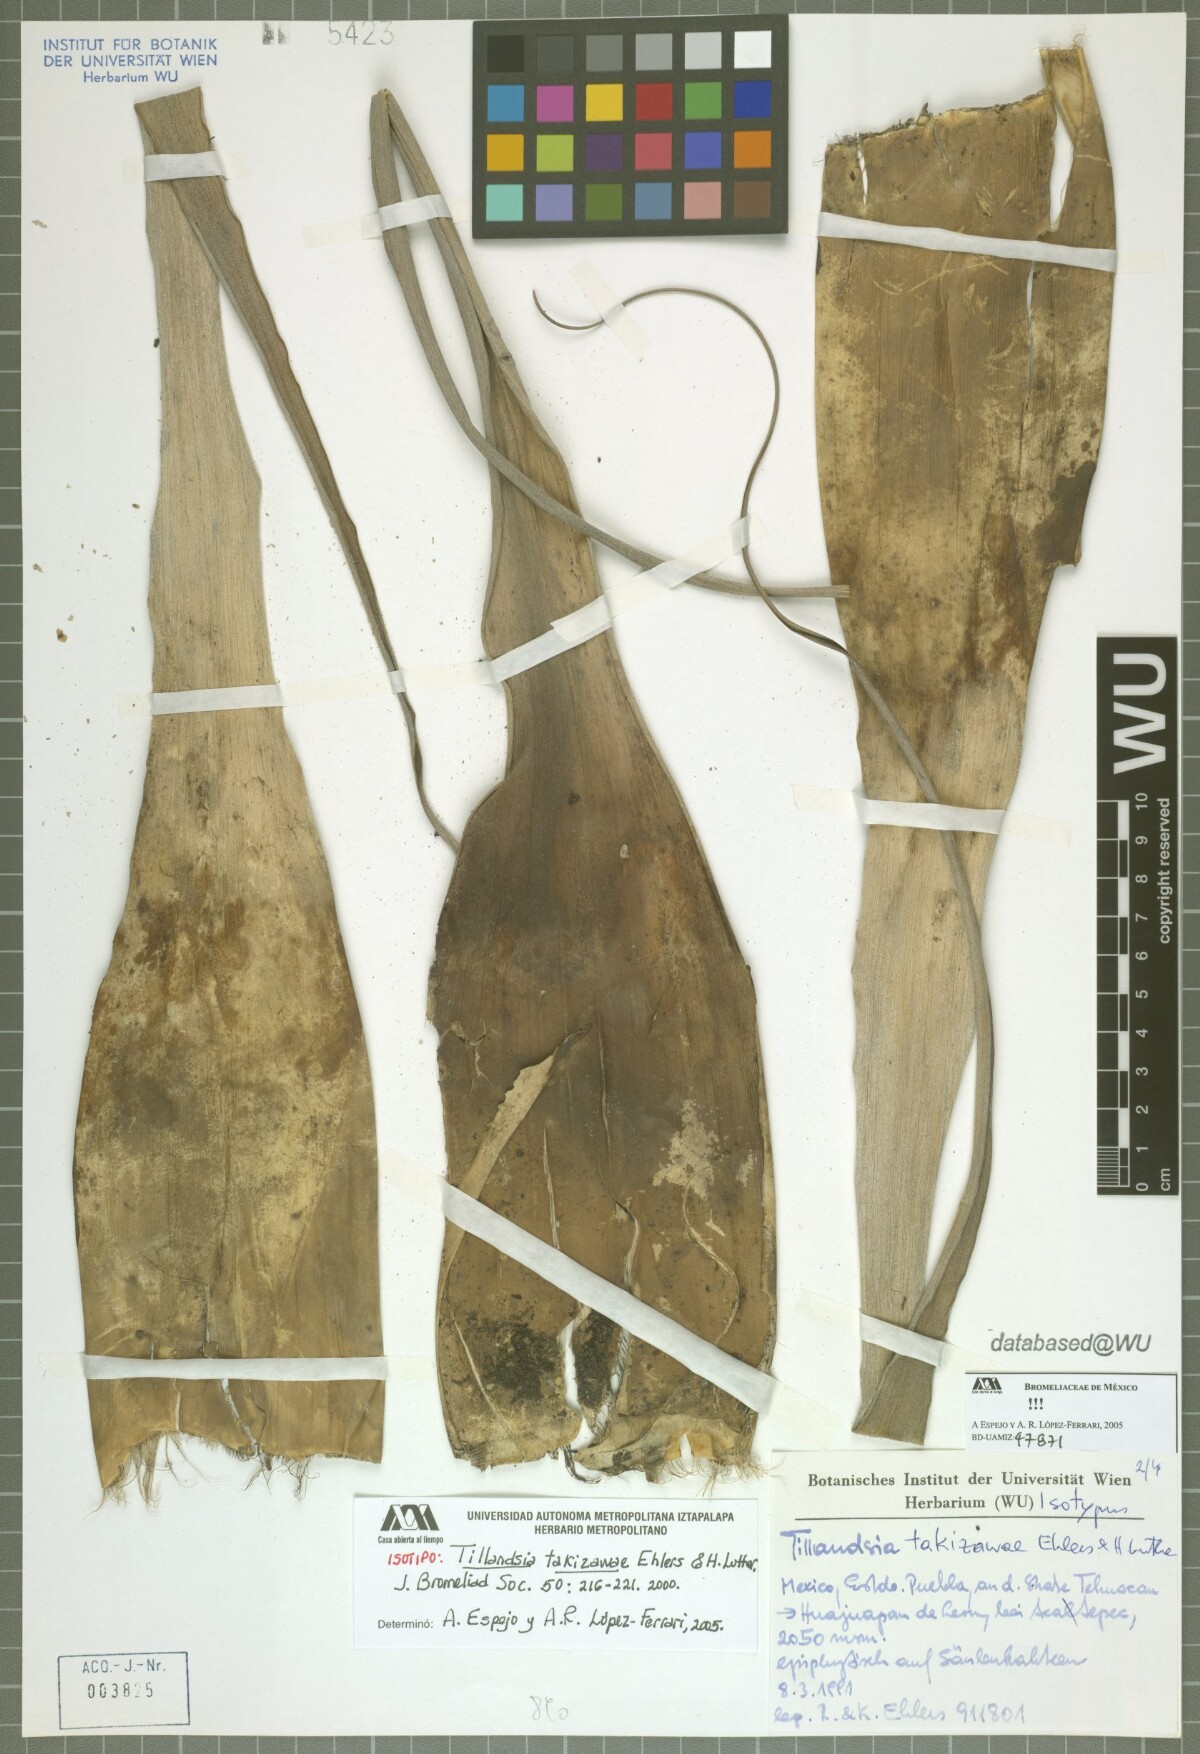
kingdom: Plantae
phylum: Tracheophyta
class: Liliopsida
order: Poales
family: Bromeliaceae
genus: Tillandsia
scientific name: Tillandsia takizawae
